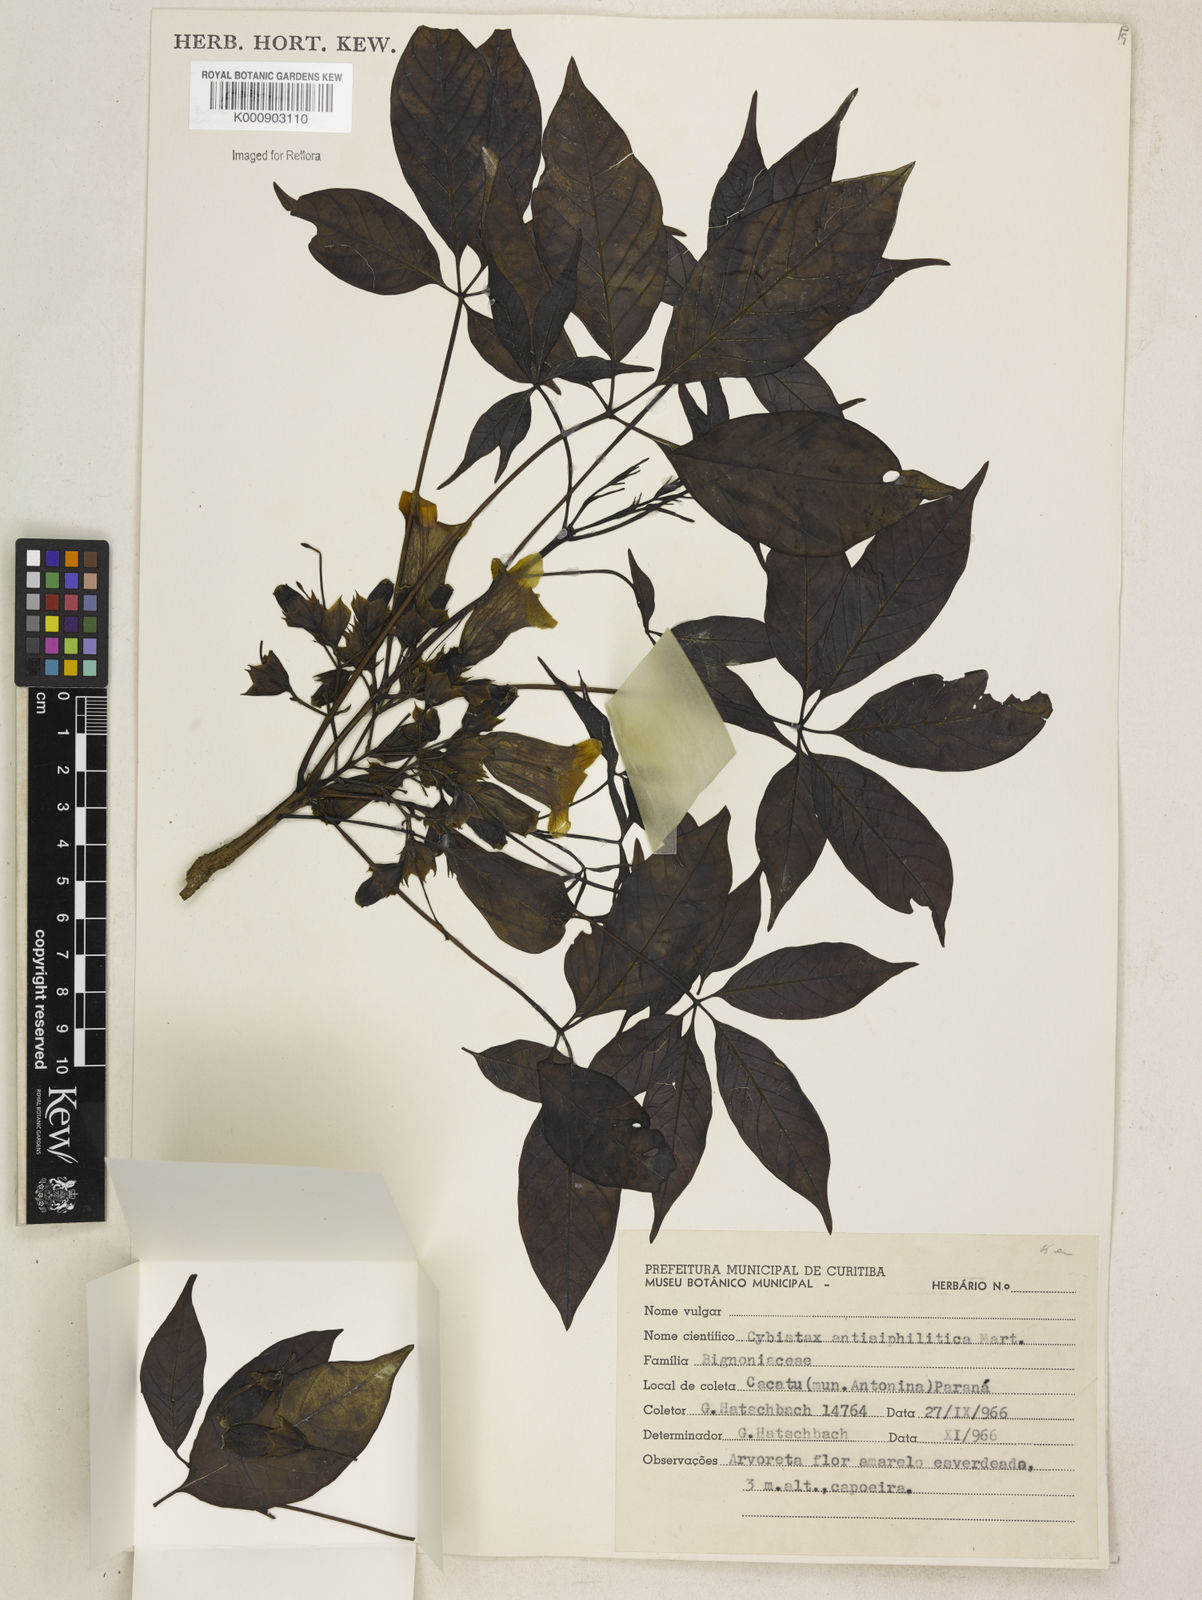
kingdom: Plantae
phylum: Tracheophyta
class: Magnoliopsida
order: Lamiales
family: Bignoniaceae
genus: Cybistax
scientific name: Cybistax antisyphilitica
